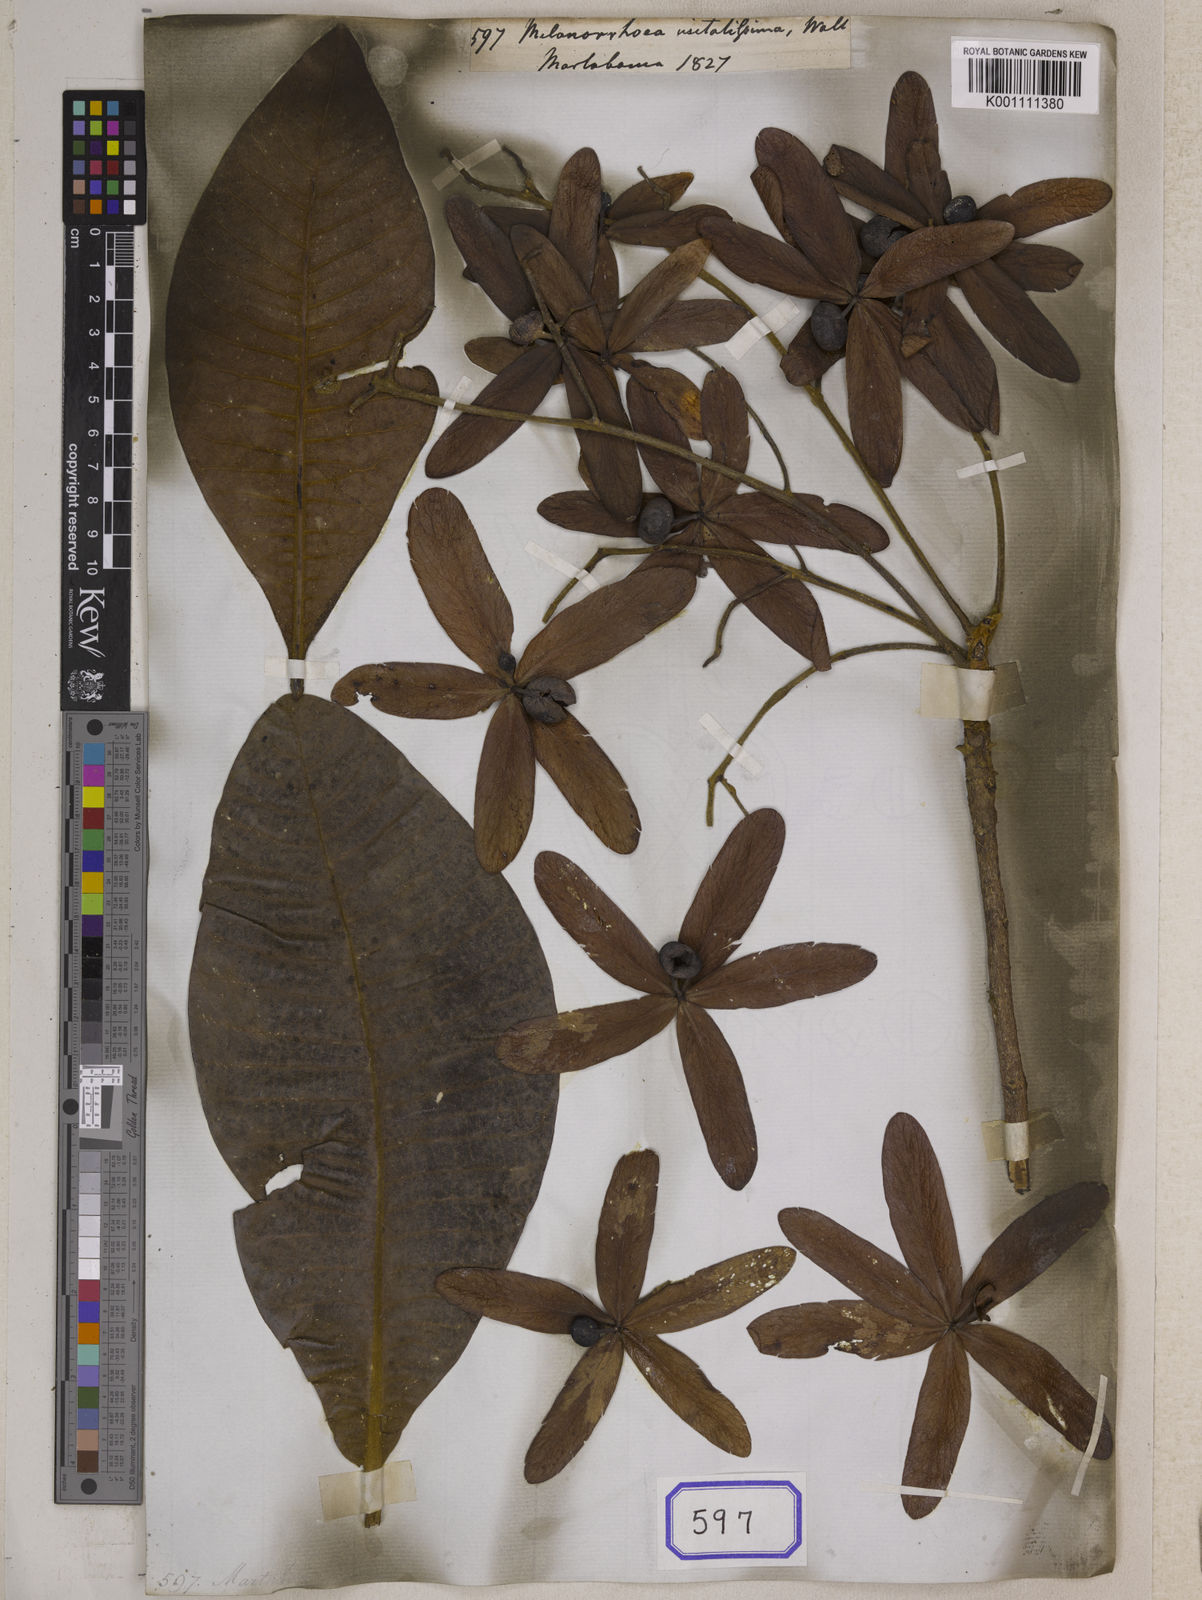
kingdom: Plantae
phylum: Tracheophyta
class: Magnoliopsida
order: Sapindales
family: Anacardiaceae
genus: Gluta
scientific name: Gluta
